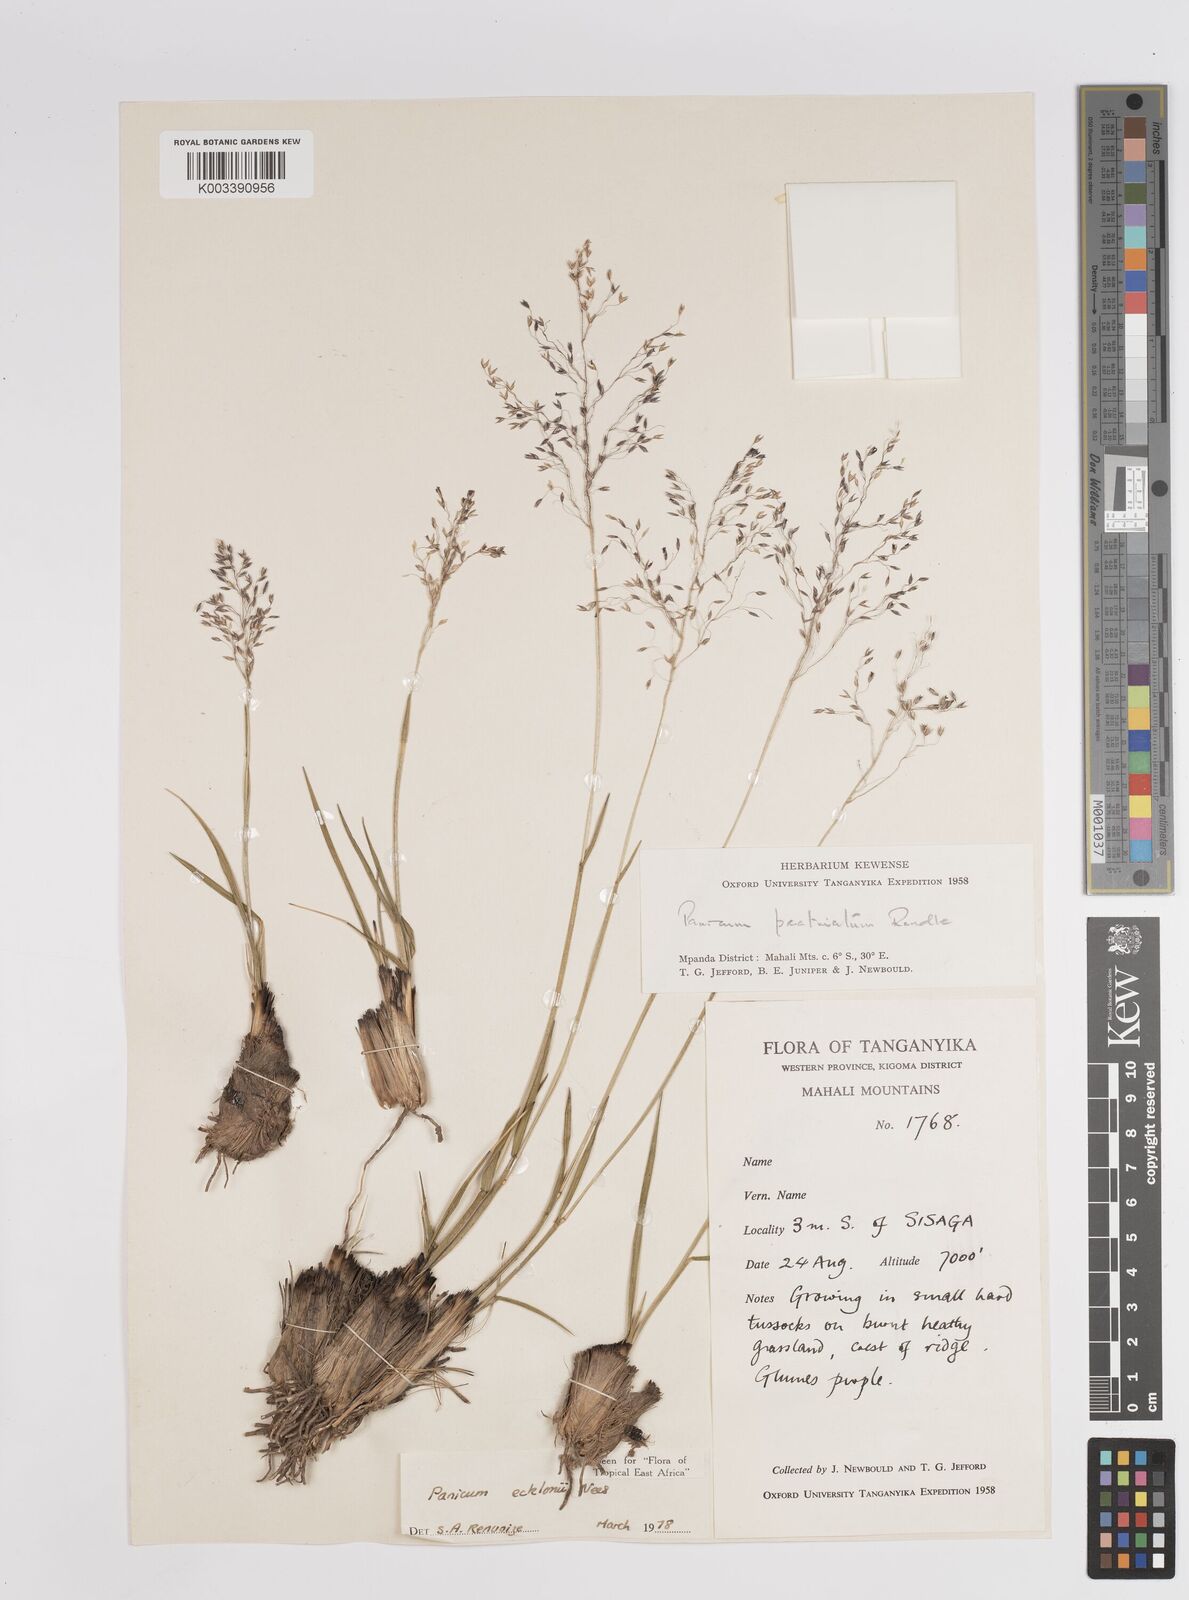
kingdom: Plantae
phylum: Tracheophyta
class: Liliopsida
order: Poales
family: Poaceae
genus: Adenochloa
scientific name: Adenochloa ecklonii
